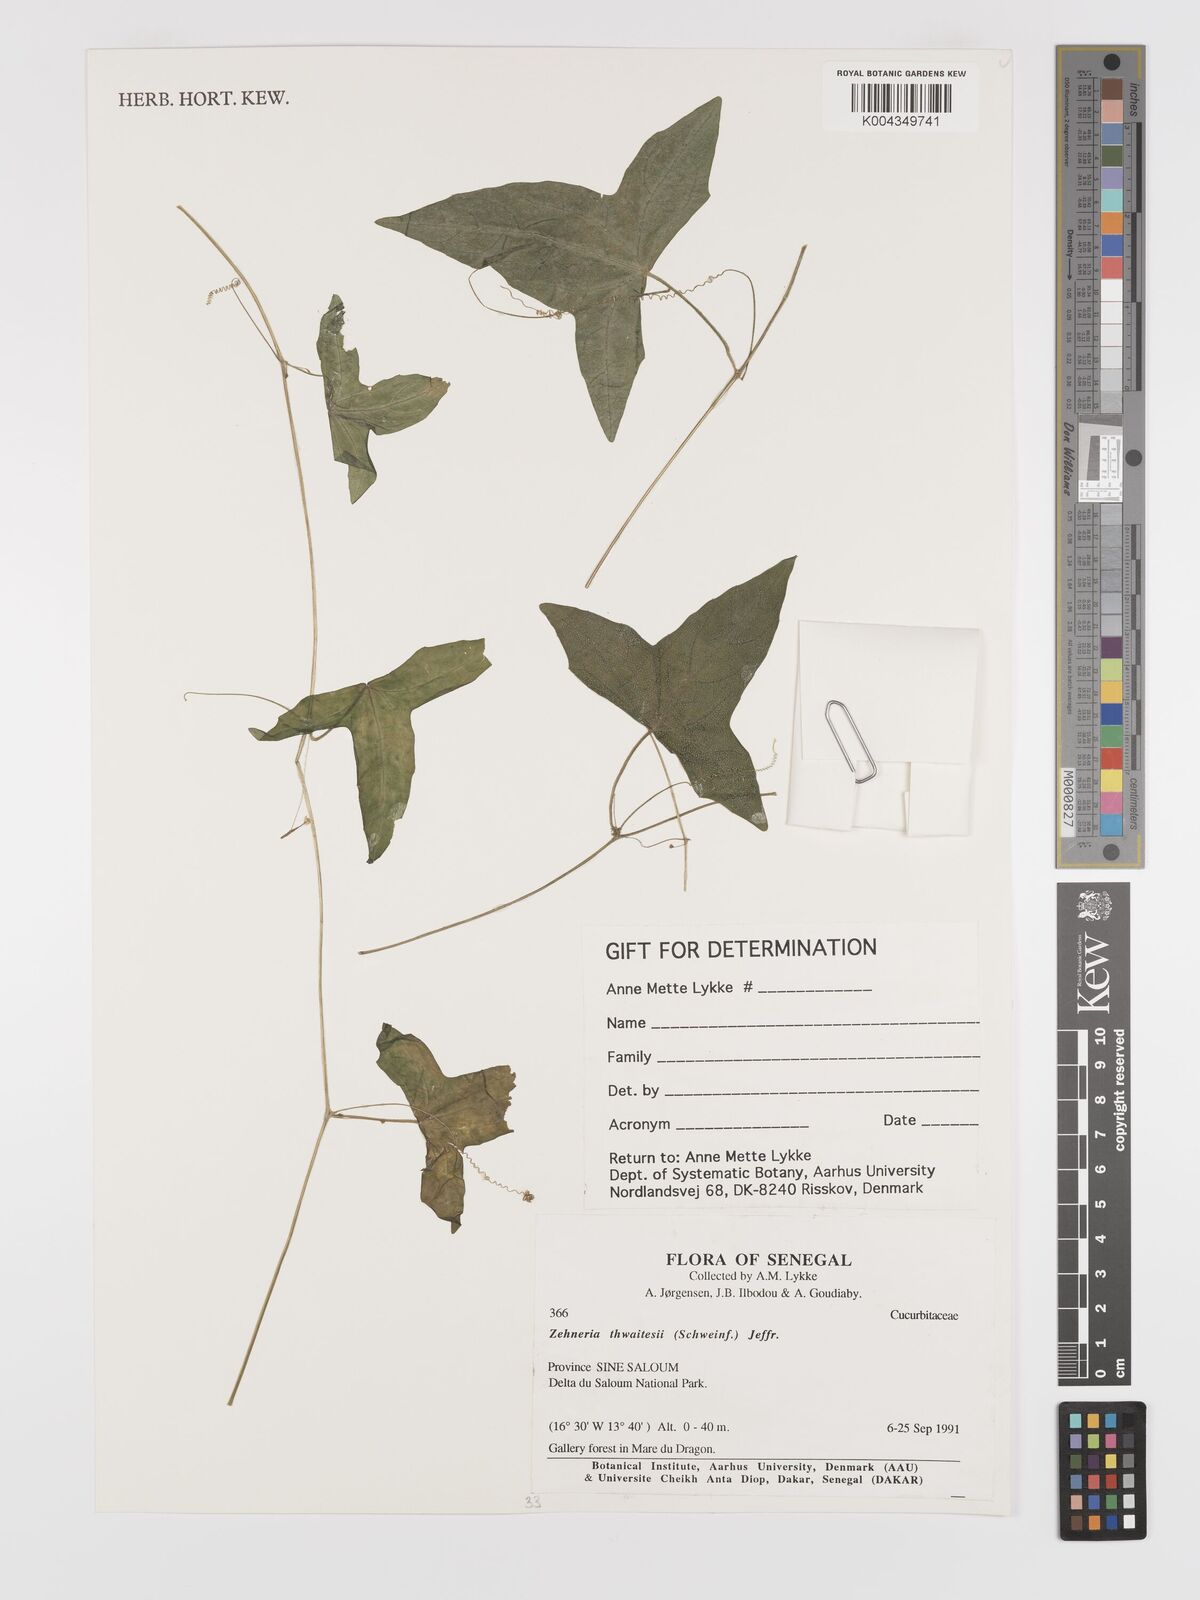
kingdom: Plantae
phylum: Tracheophyta
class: Magnoliopsida
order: Cucurbitales
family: Cucurbitaceae
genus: Zehneria
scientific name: Zehneria thwaitesii
